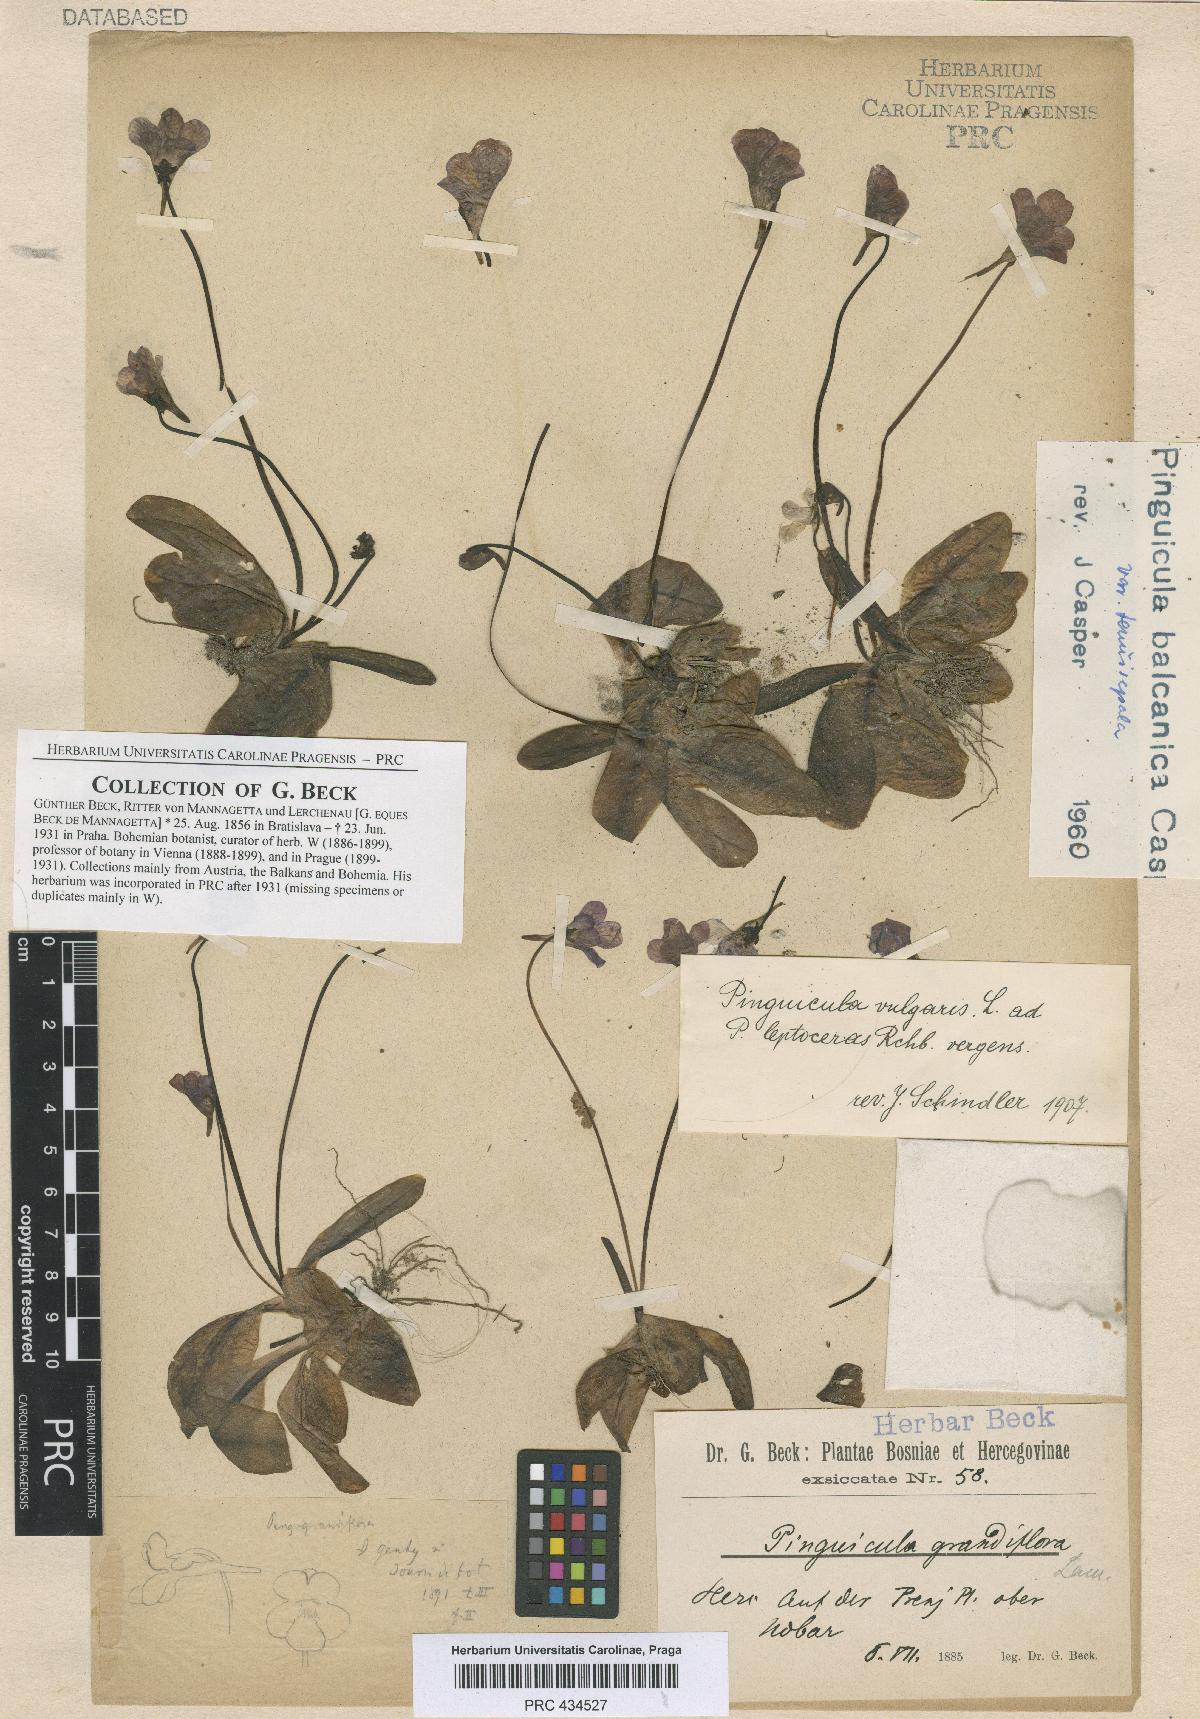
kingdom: Plantae
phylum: Tracheophyta
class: Magnoliopsida
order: Lamiales
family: Lentibulariaceae
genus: Pinguicula
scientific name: Pinguicula balcanica
